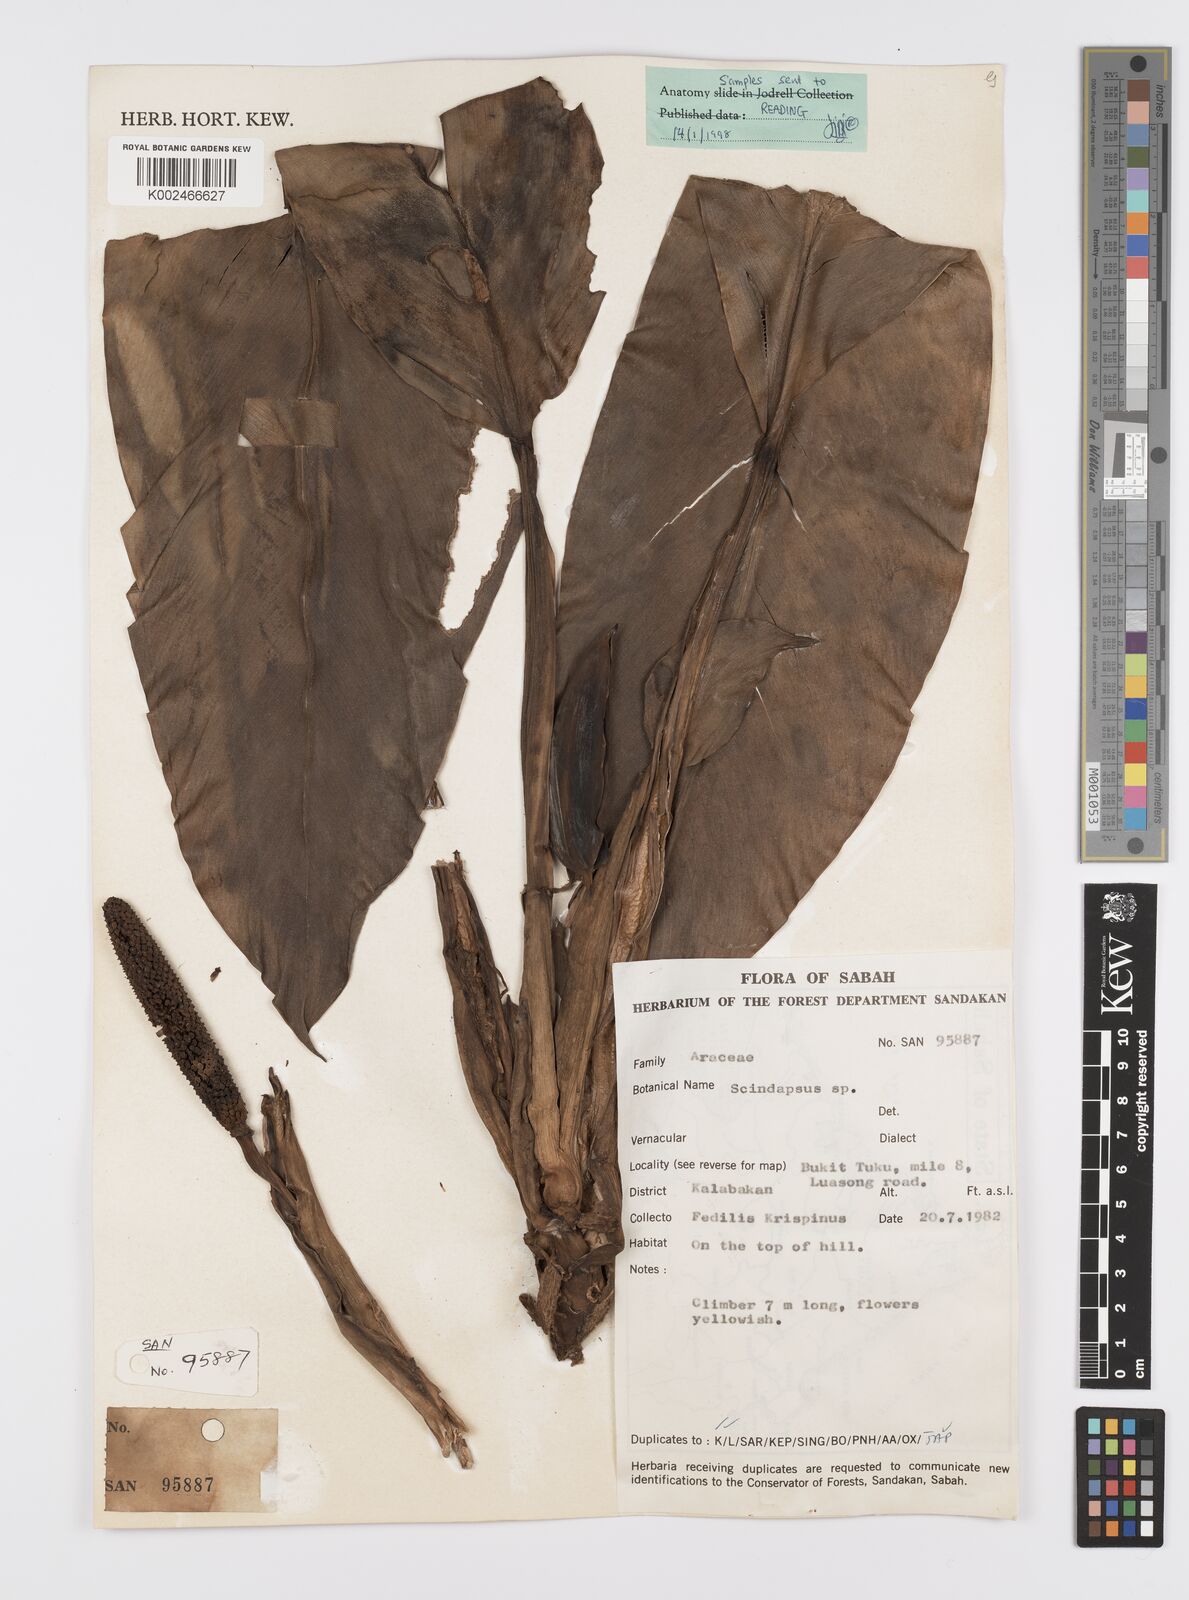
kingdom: Plantae
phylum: Tracheophyta
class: Liliopsida
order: Alismatales
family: Araceae
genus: Scindapsus
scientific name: Scindapsus
